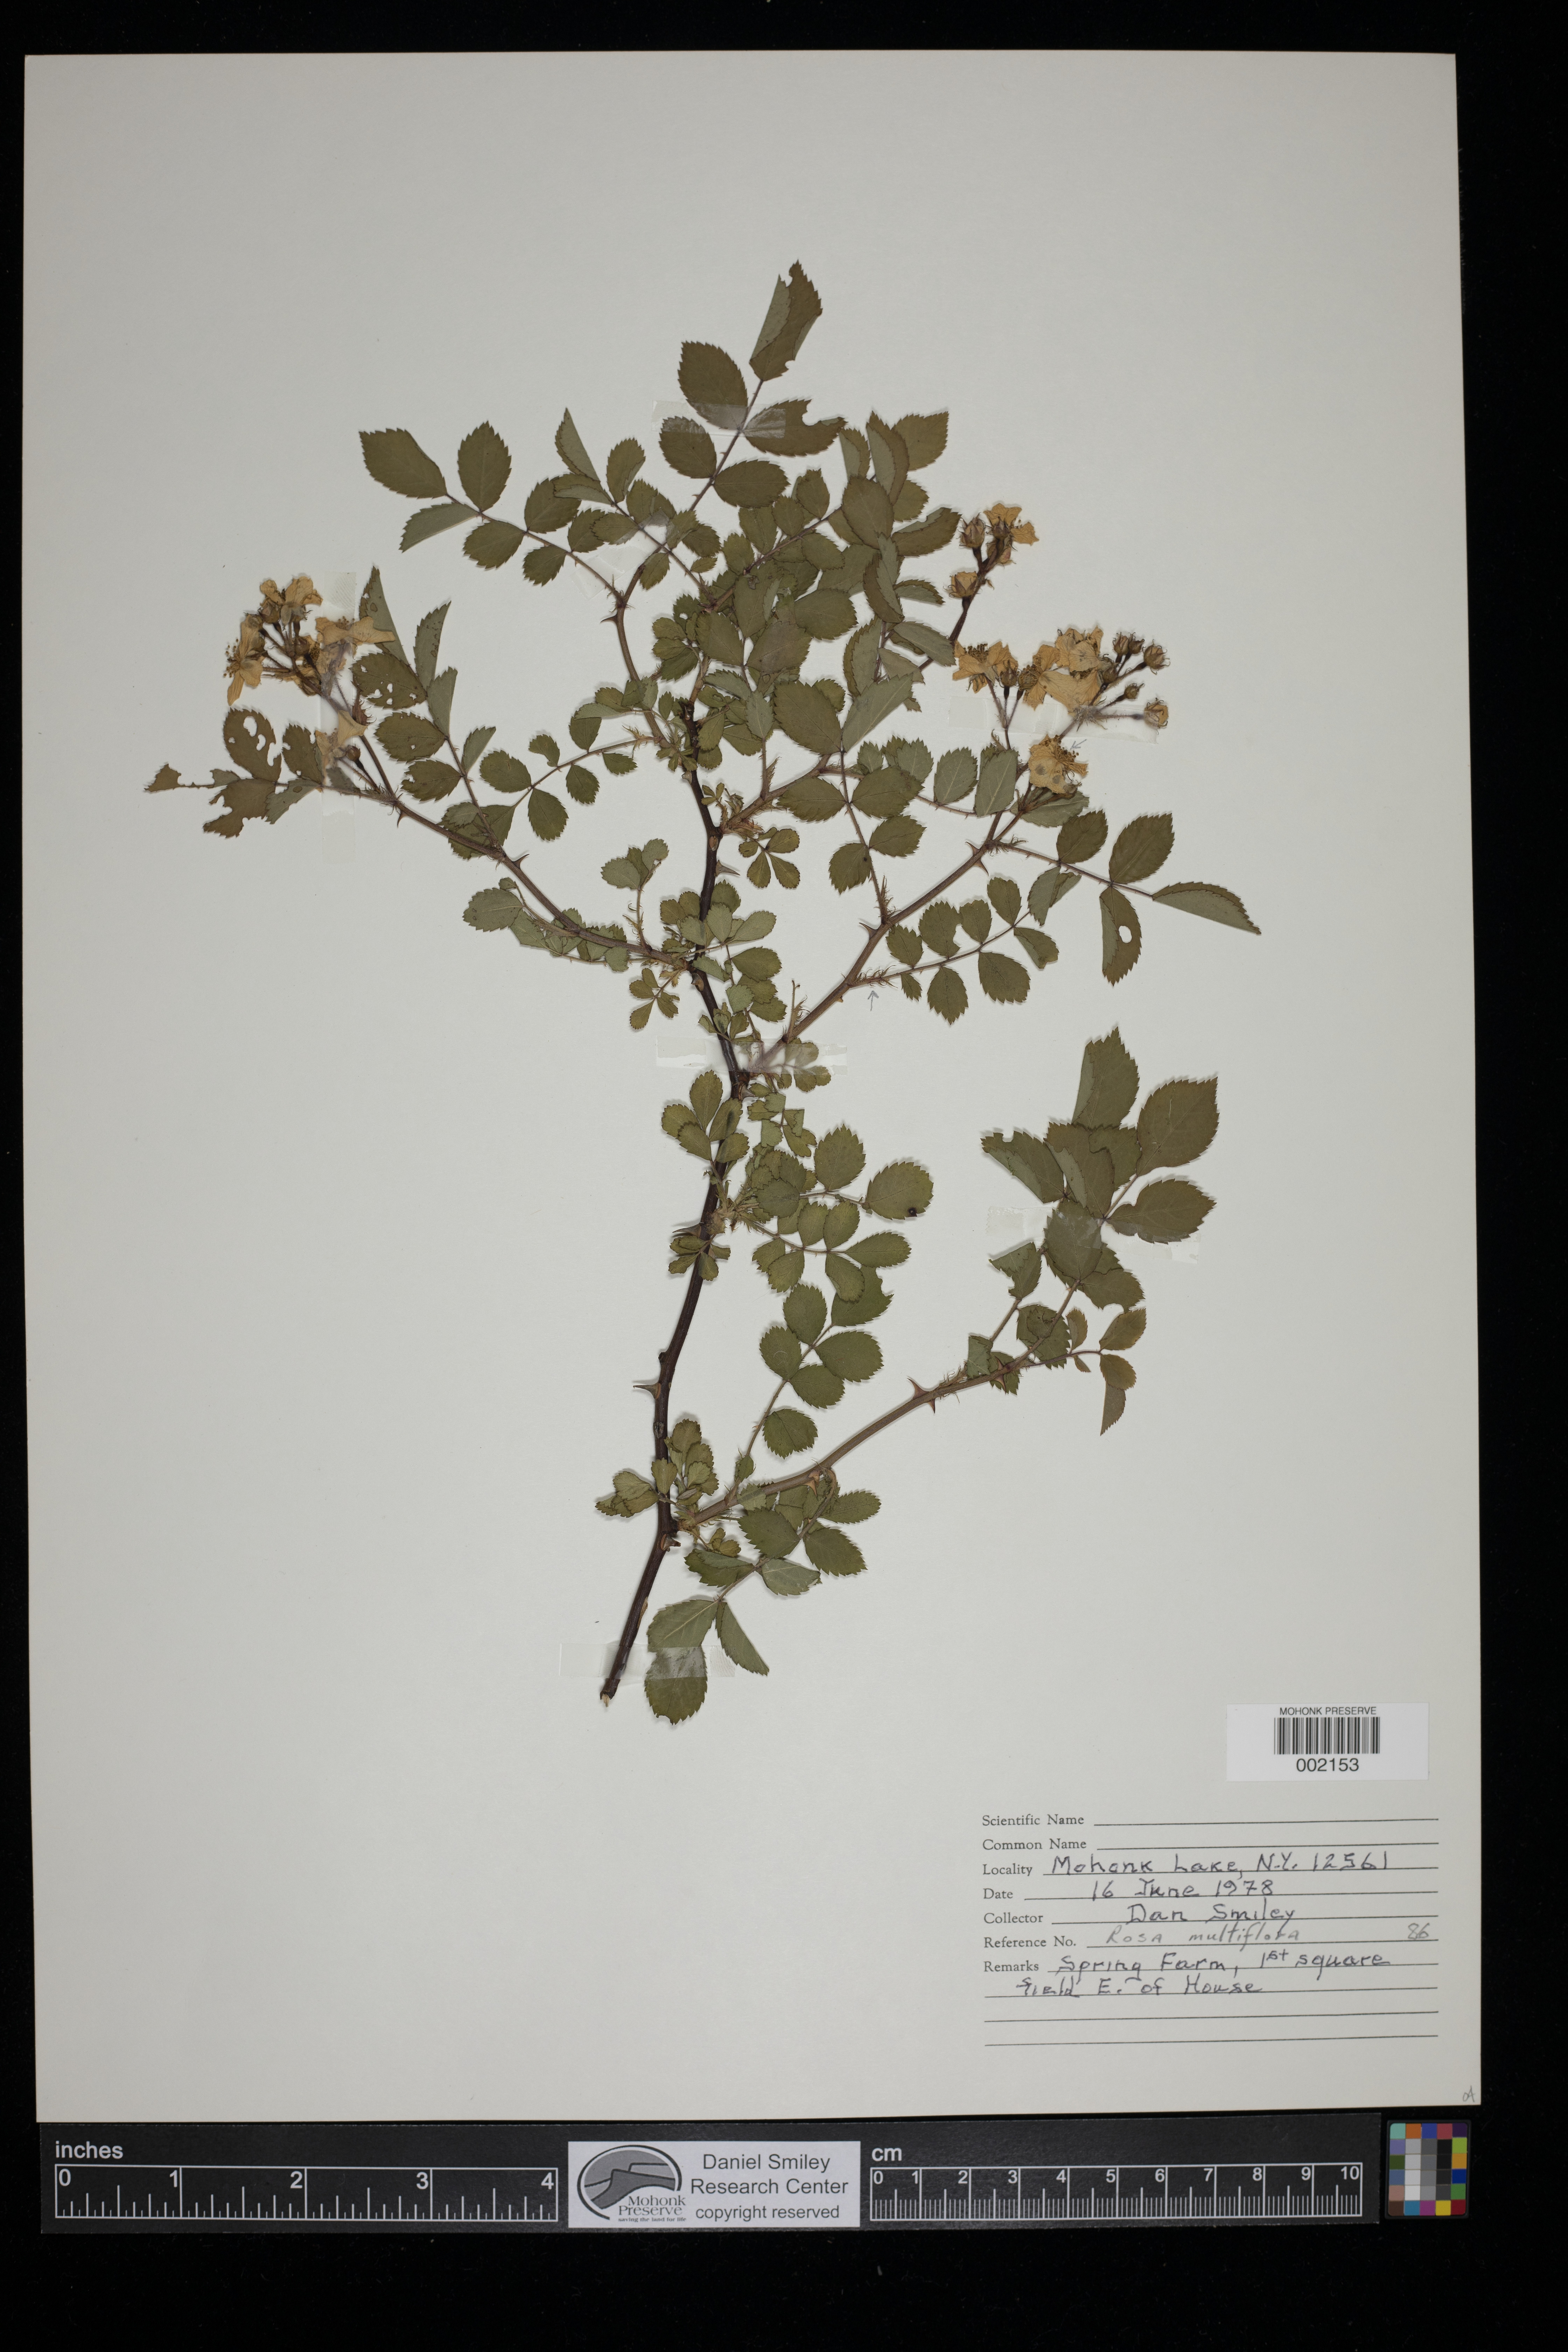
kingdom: Plantae
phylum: Tracheophyta
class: Magnoliopsida
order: Rosales
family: Rosaceae
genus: Rosa
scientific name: Rosa multiflora
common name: Multiflora rose
